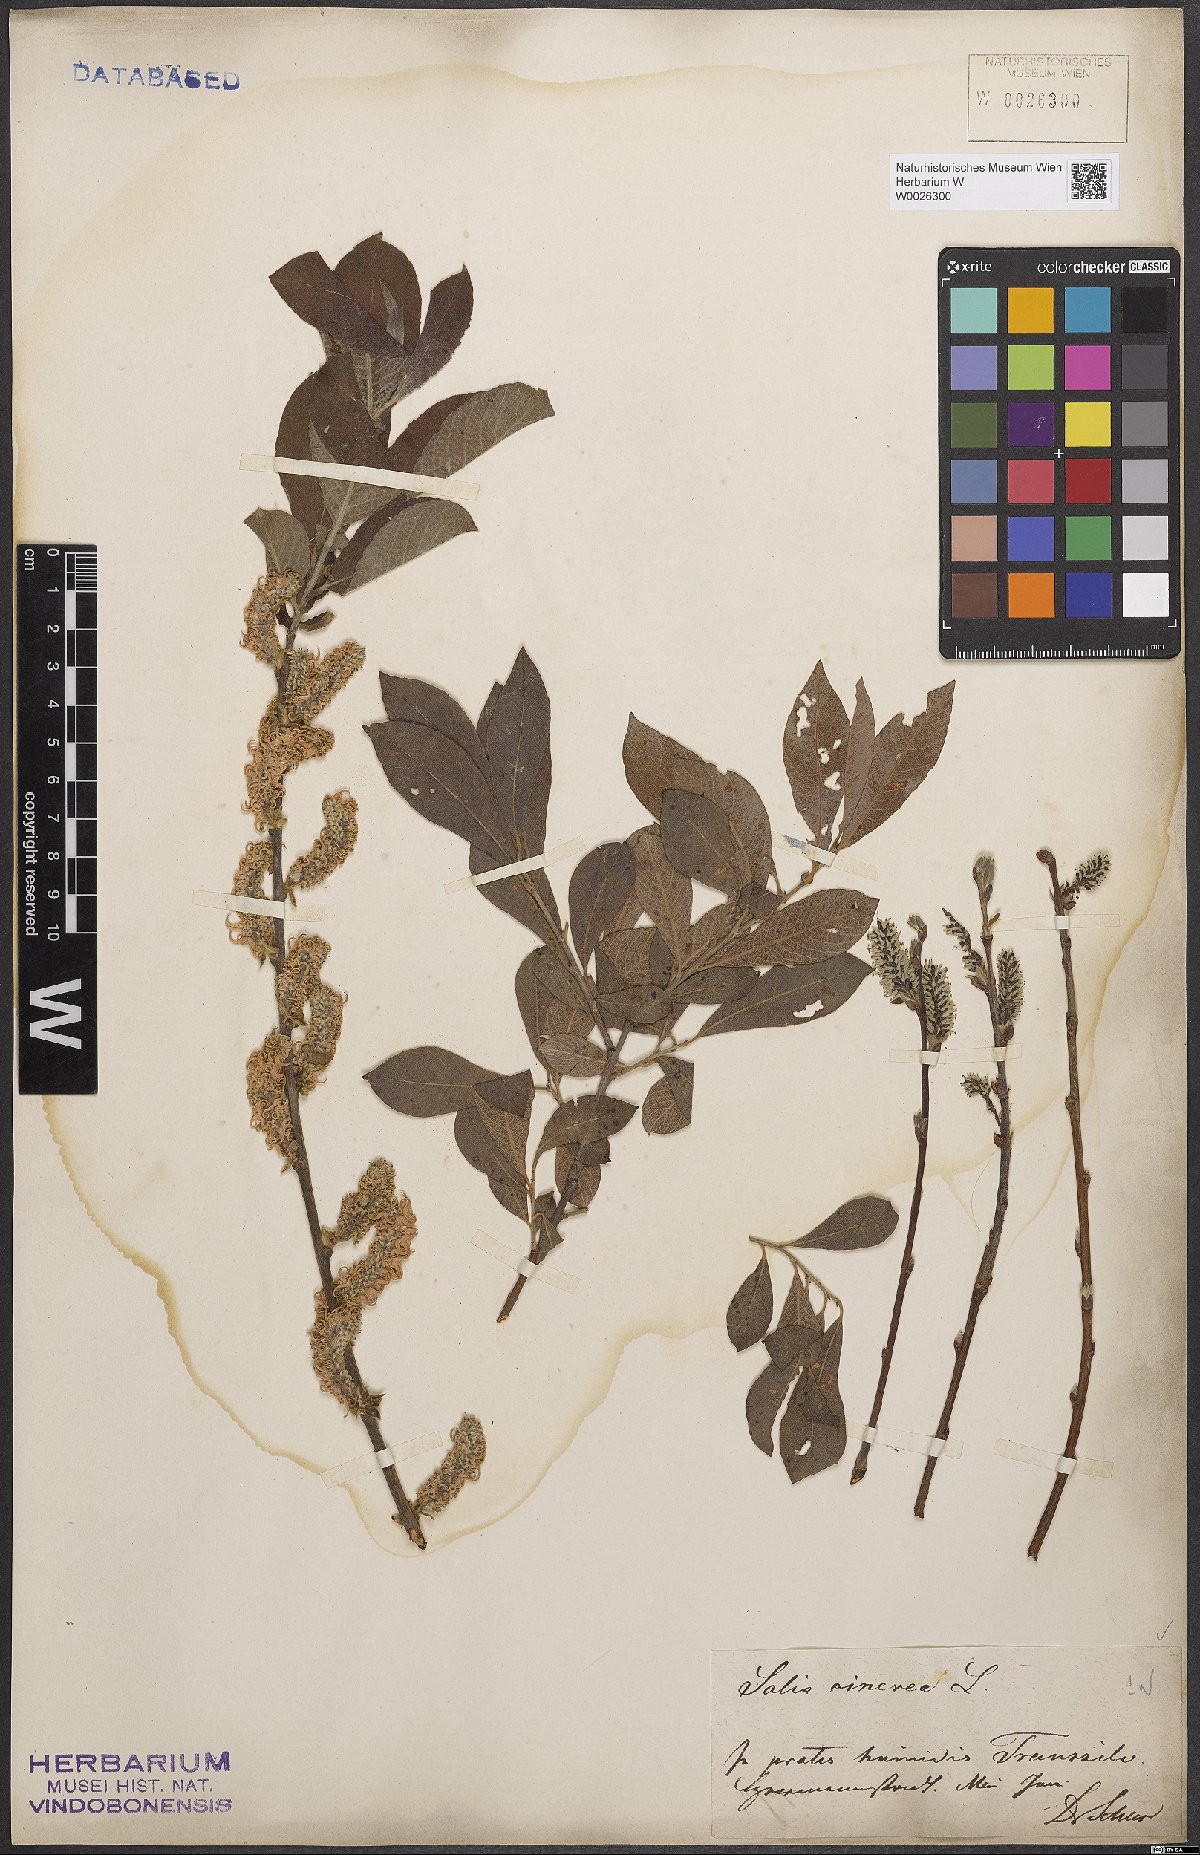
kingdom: Plantae
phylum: Tracheophyta
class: Magnoliopsida
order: Malpighiales
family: Salicaceae
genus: Salix
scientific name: Salix cinerea
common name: Common sallow
